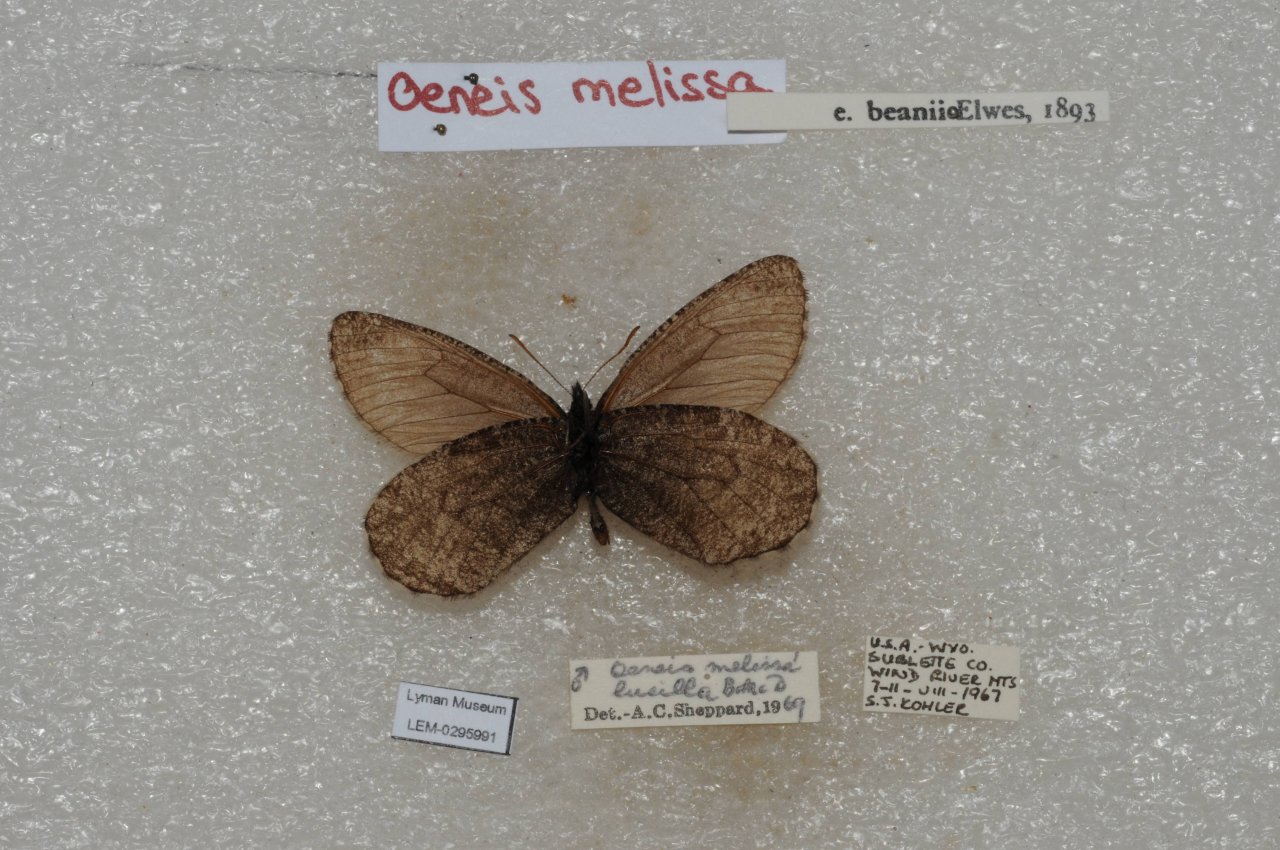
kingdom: Animalia
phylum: Arthropoda
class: Insecta
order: Lepidoptera
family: Nymphalidae
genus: Oeneis
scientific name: Oeneis melissa
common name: Melissa Arctic
